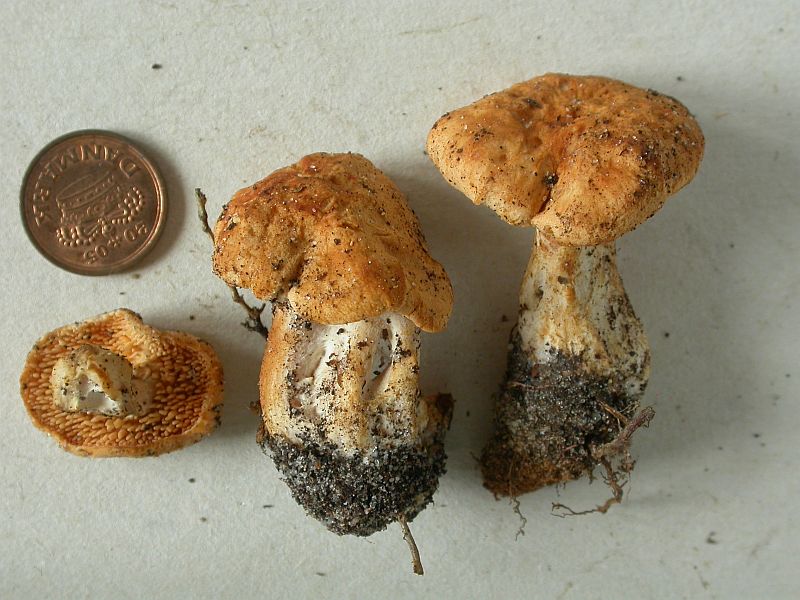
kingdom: Fungi
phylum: Basidiomycota
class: Agaricomycetes
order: Cantharellales
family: Hydnaceae
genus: Hydnum
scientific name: Hydnum ellipsosporum
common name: tandet pigsvamp
